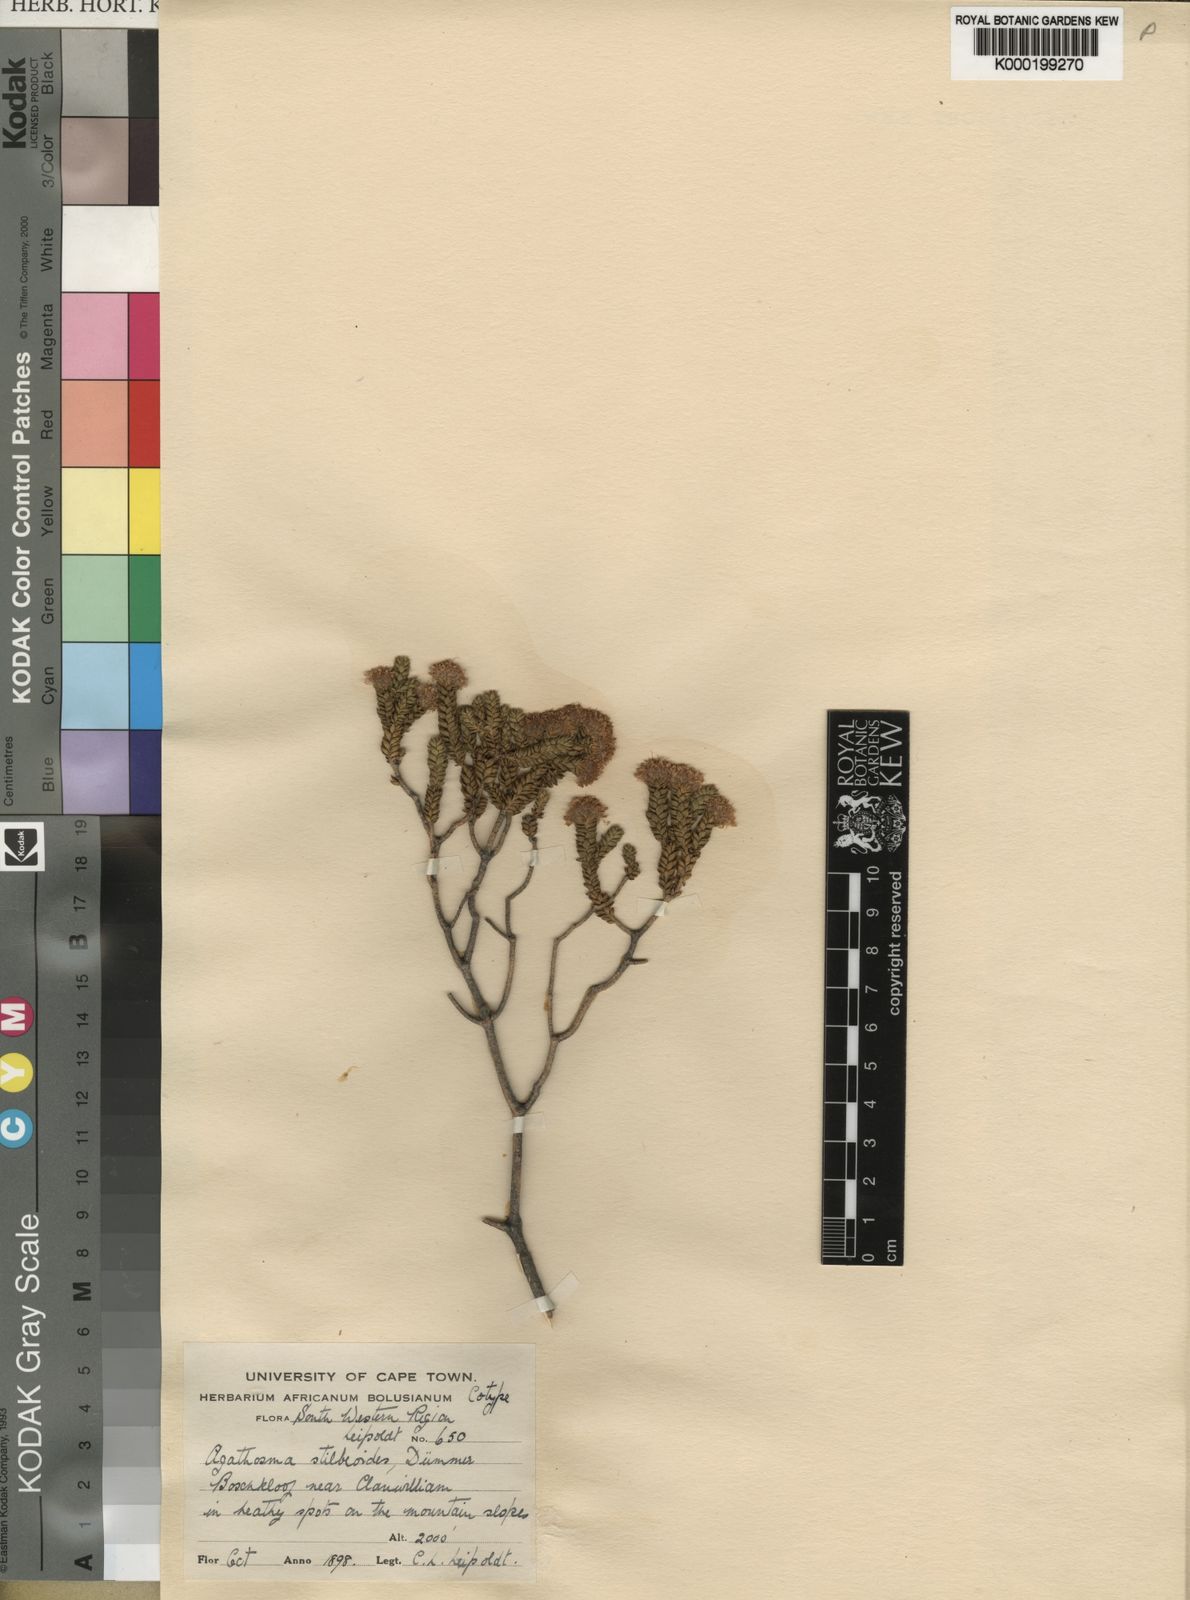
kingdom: Plantae
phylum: Tracheophyta
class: Magnoliopsida
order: Sapindales
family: Rutaceae
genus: Agathosma
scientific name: Agathosma stilbeoides
